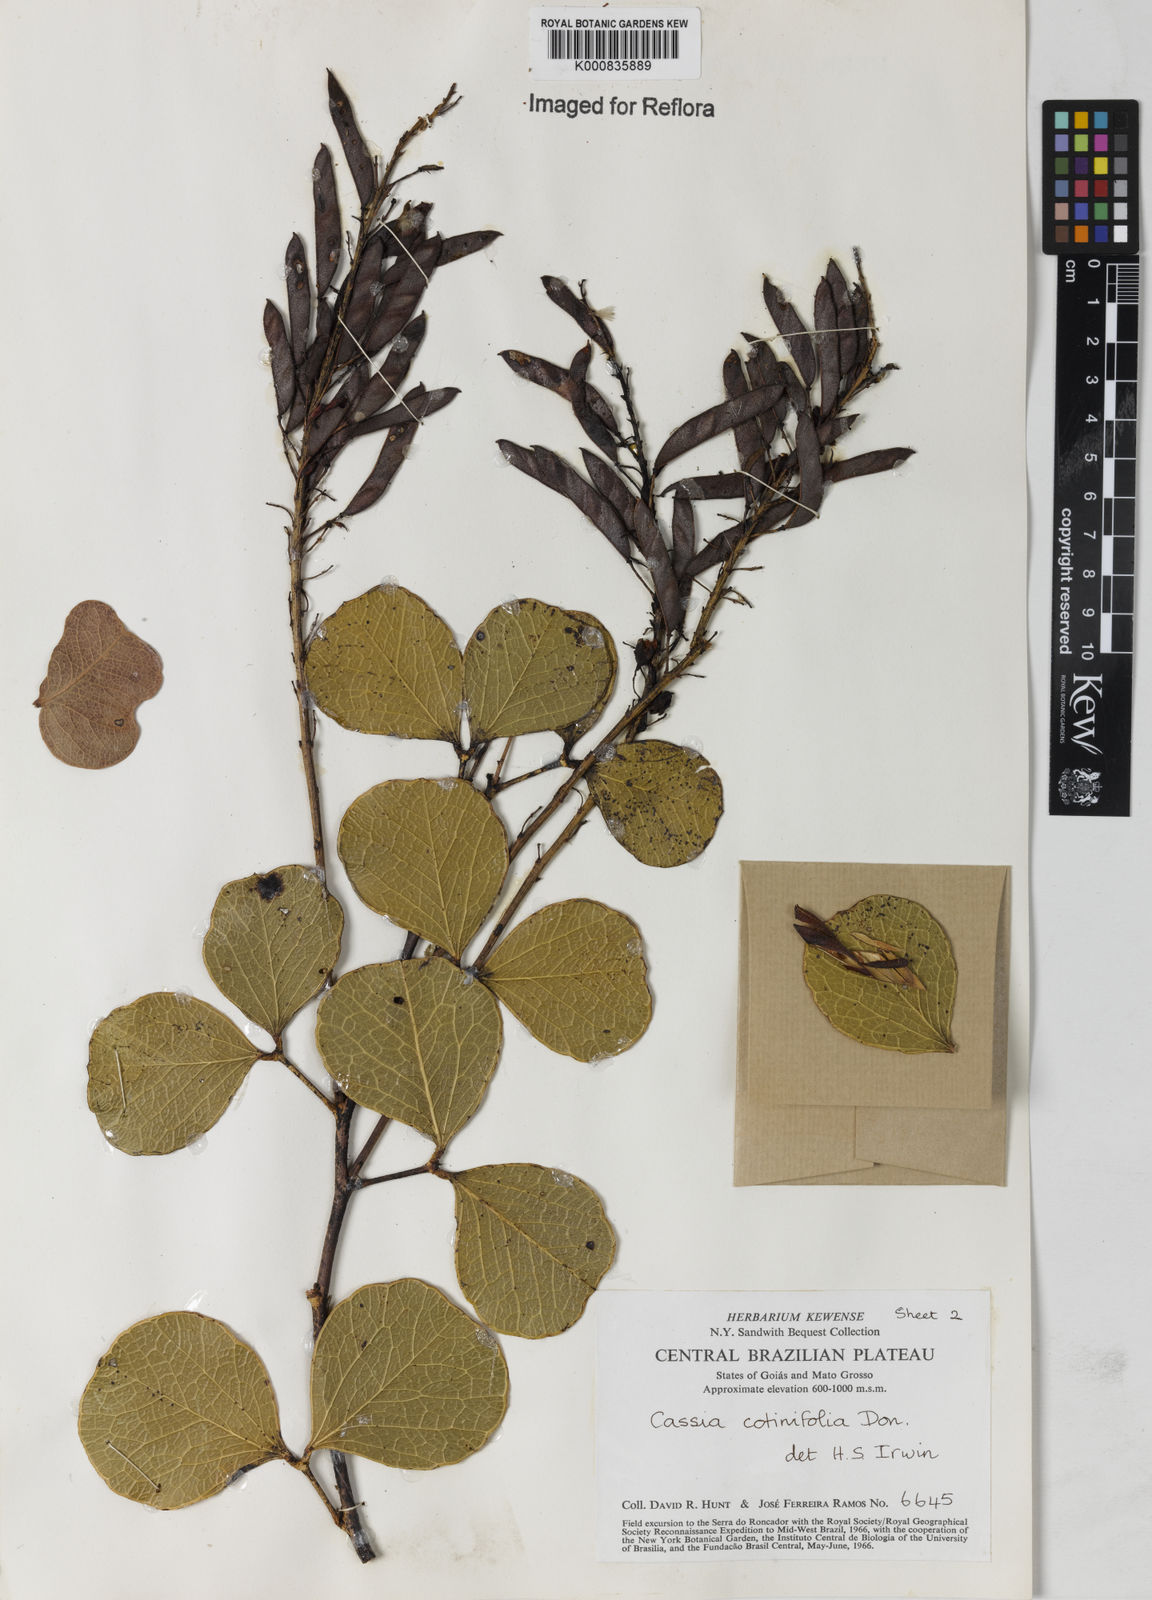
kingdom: Plantae
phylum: Tracheophyta
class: Magnoliopsida
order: Fabales
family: Fabaceae
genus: Chamaecrista
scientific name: Chamaecrista cotinifolia
